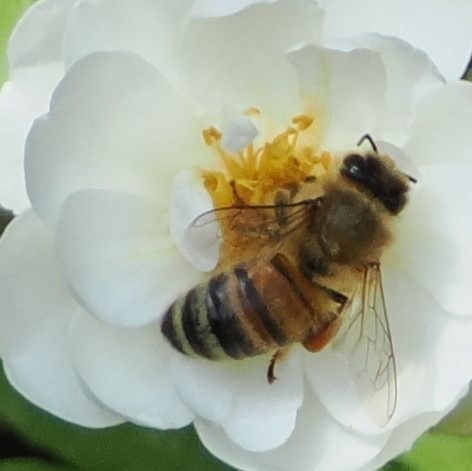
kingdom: Animalia
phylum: Arthropoda
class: Insecta
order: Hymenoptera
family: Apidae
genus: Apis
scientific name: Apis mellifera
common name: Honningbi
